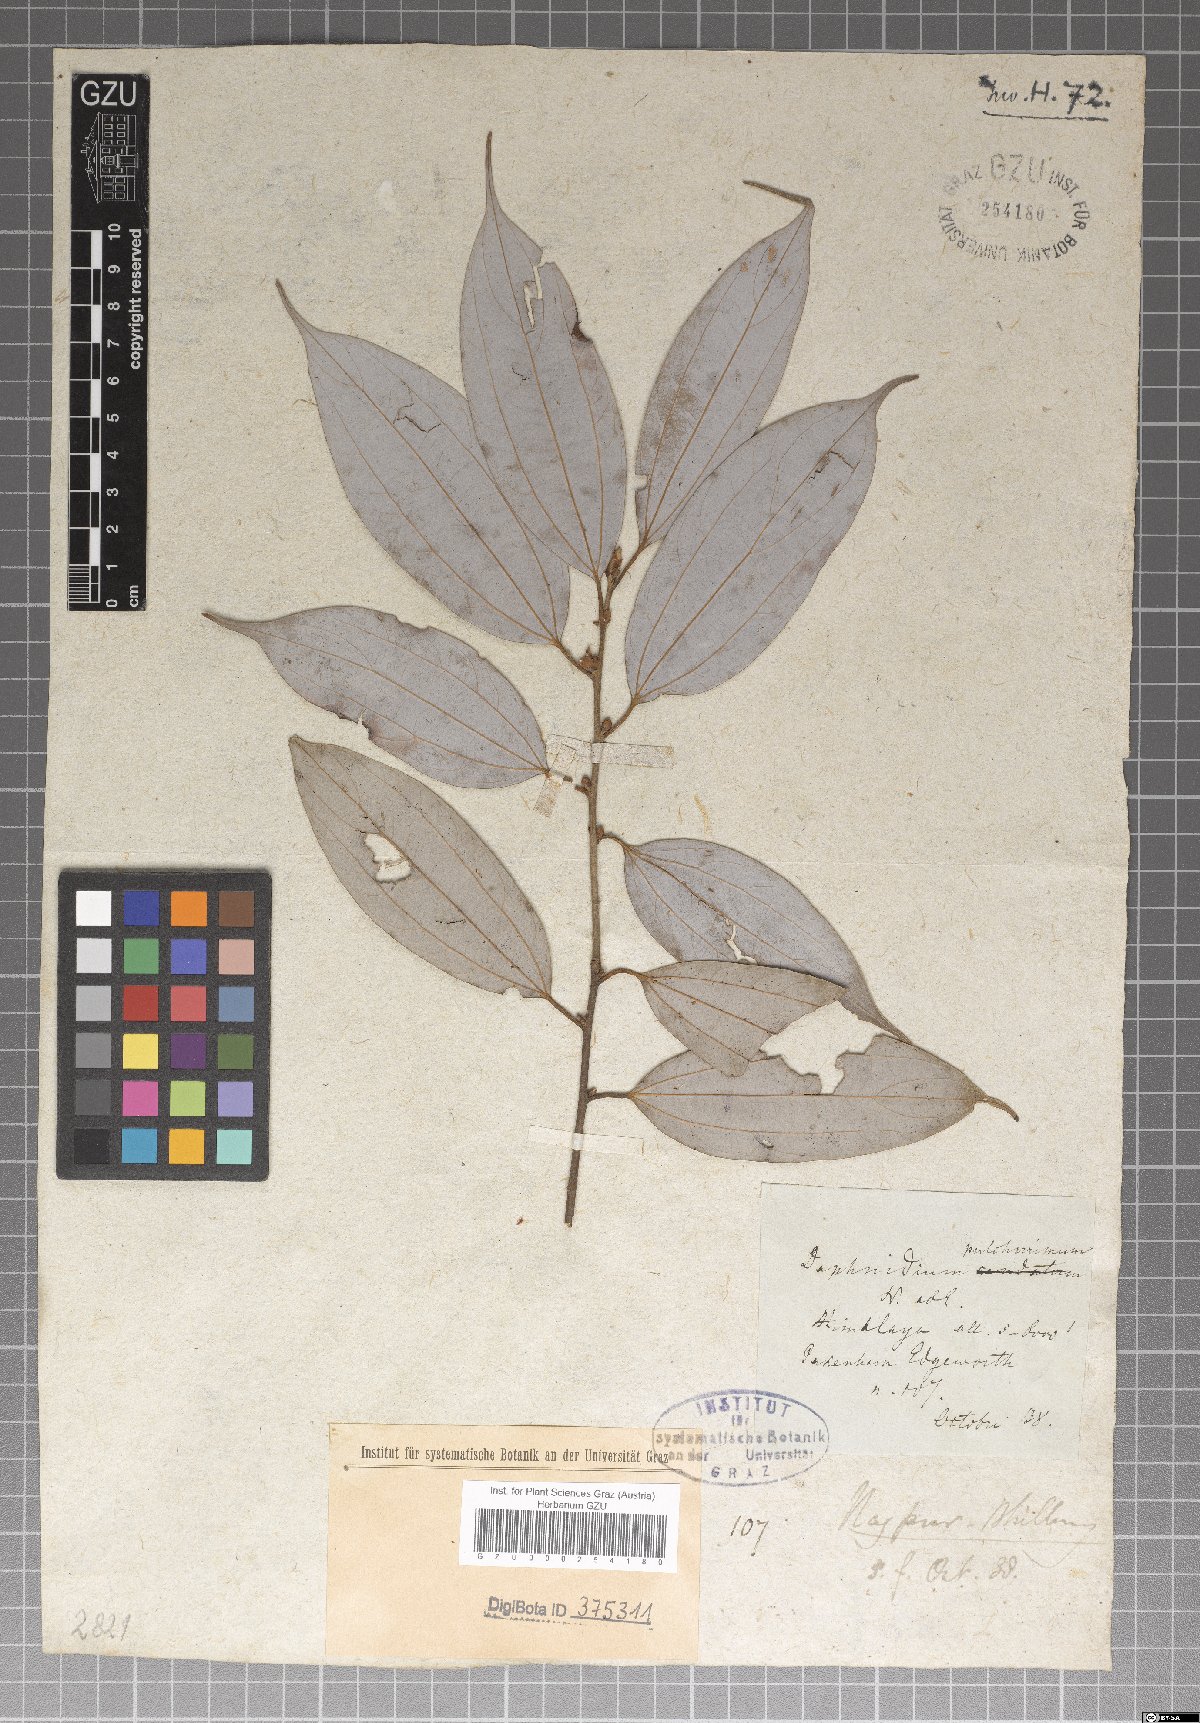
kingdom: Plantae
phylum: Tracheophyta
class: Magnoliopsida
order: Laurales
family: Lauraceae
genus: Lindera
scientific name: Lindera pulcherrima
